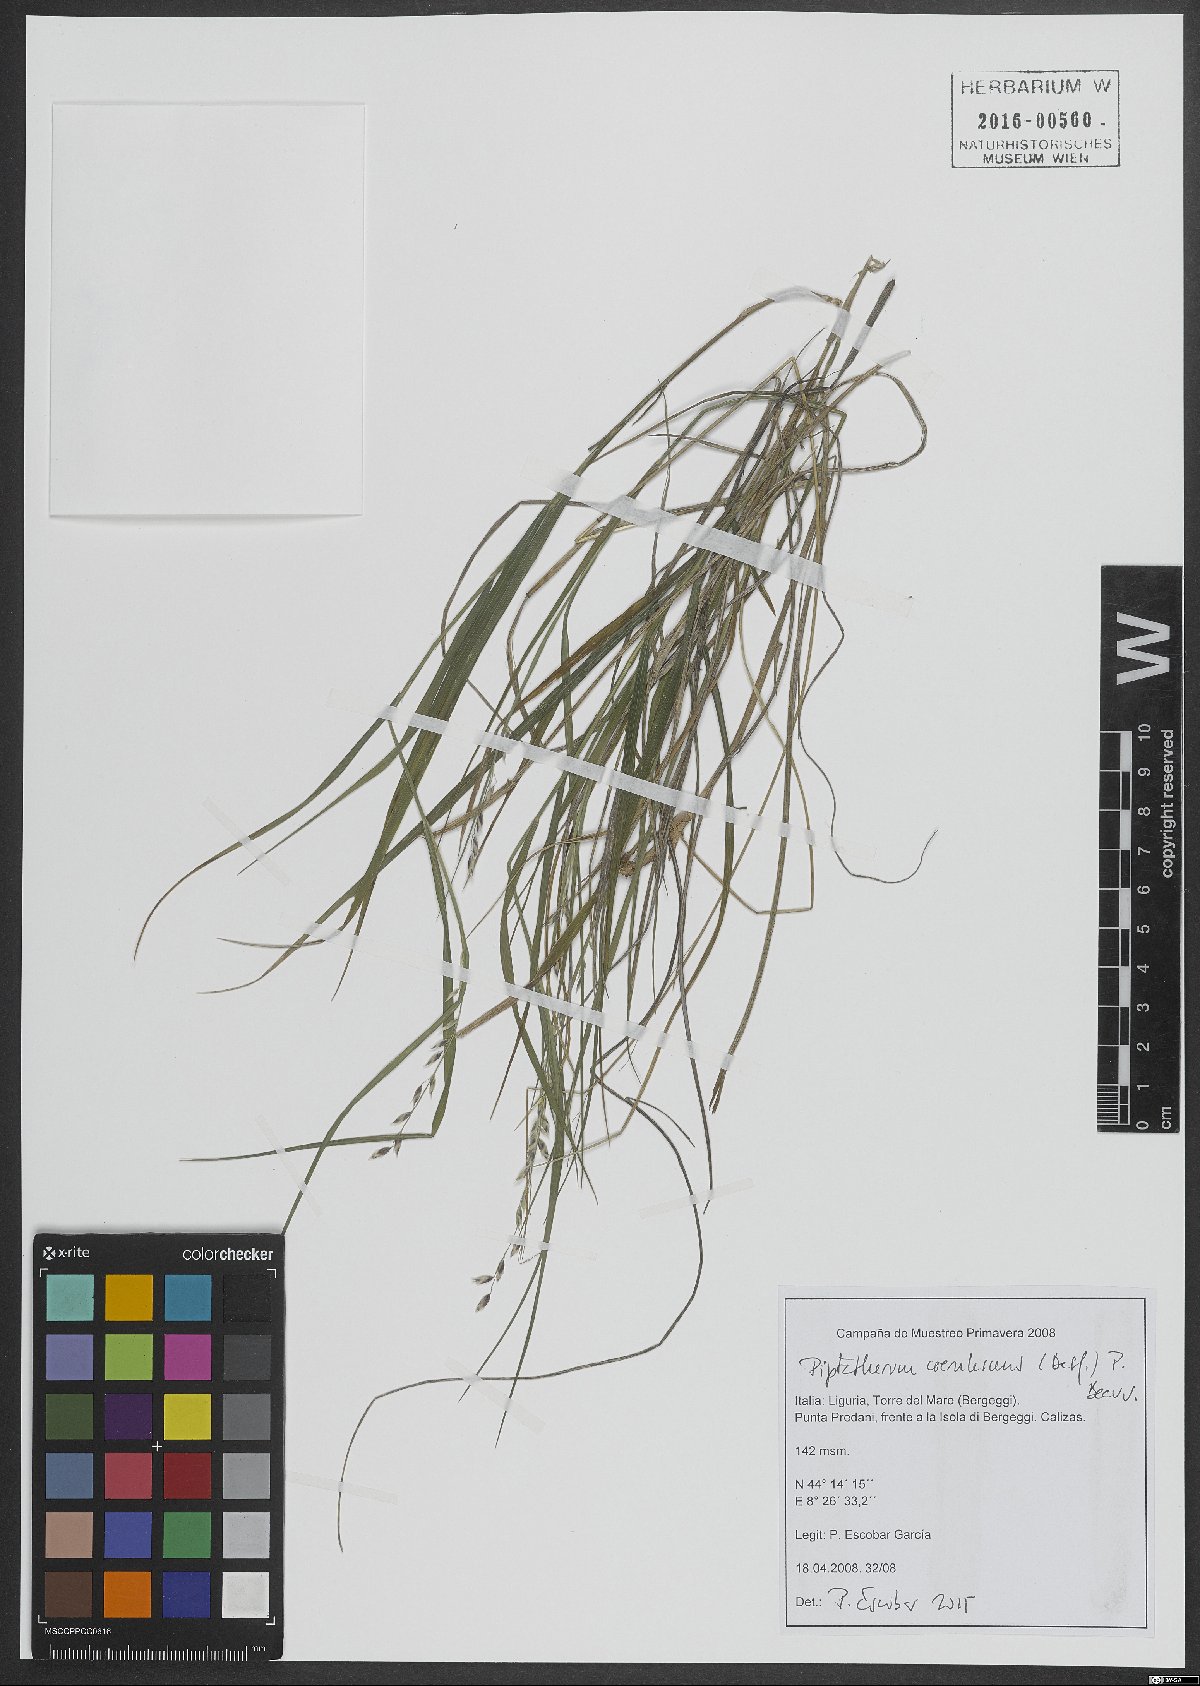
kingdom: Plantae
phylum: Tracheophyta
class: Liliopsida
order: Poales
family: Poaceae
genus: Piptatherum
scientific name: Piptatherum coerulescens
